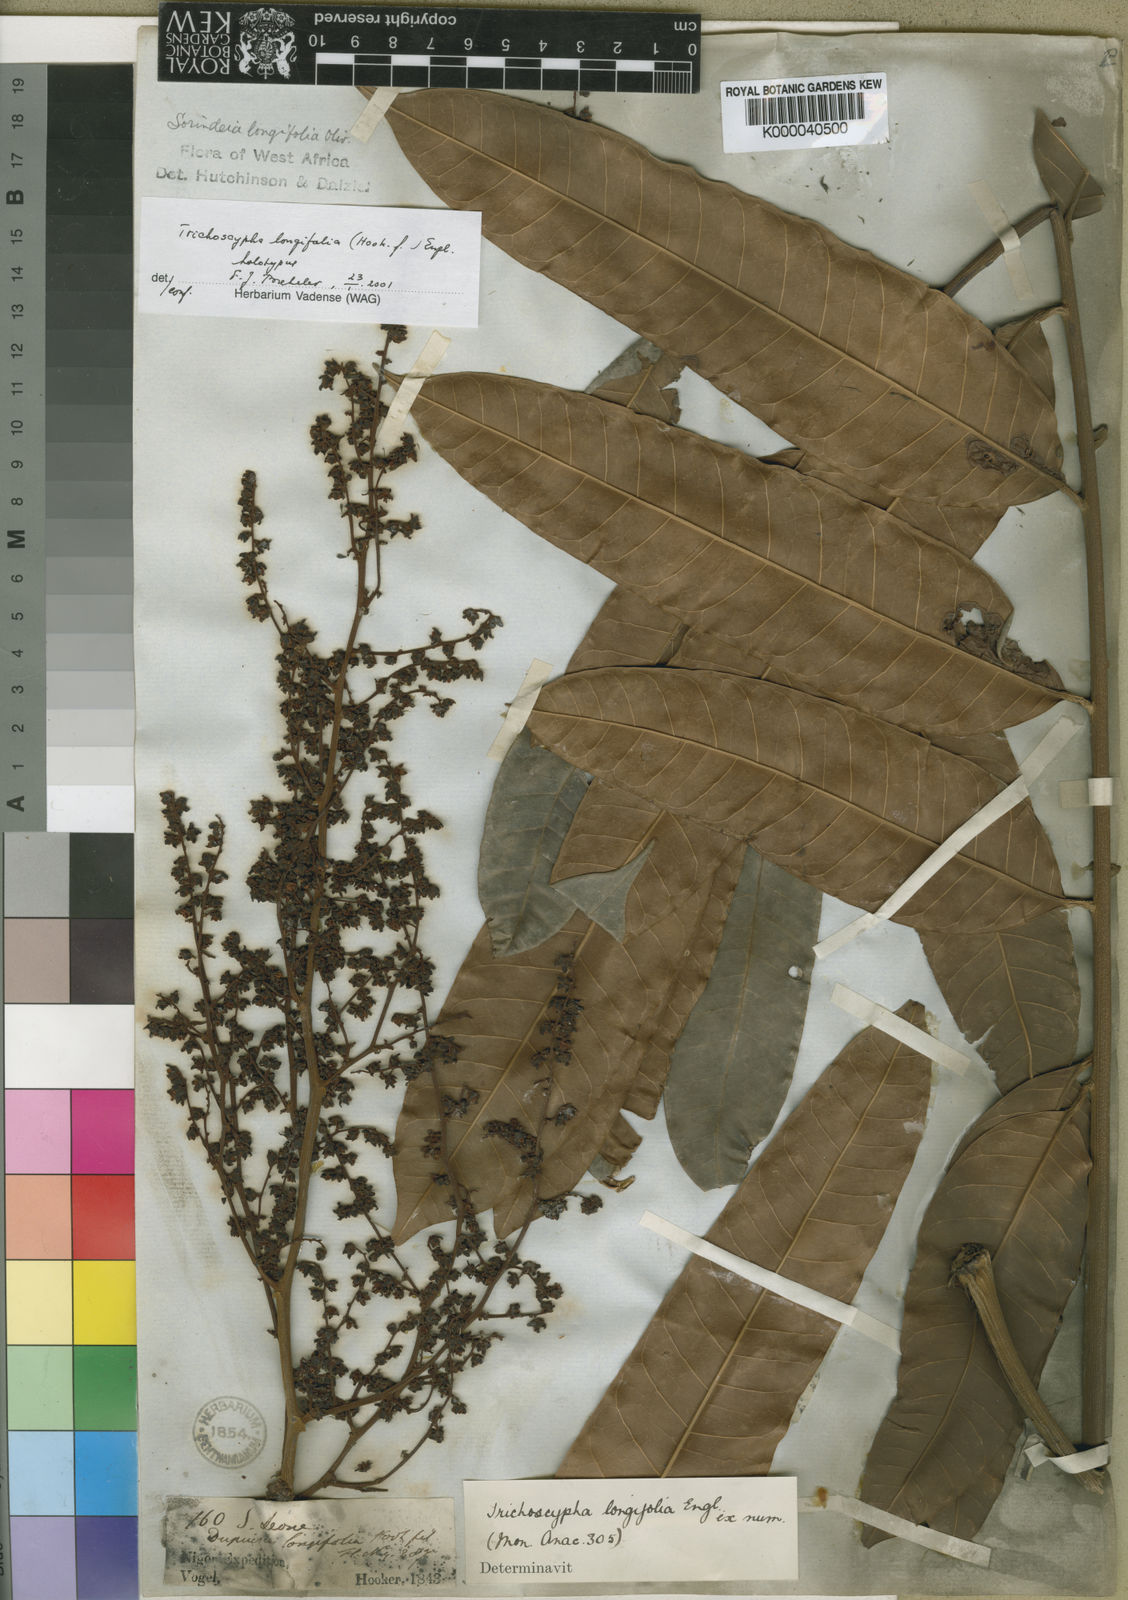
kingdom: Plantae
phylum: Tracheophyta
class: Magnoliopsida
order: Sapindales
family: Anacardiaceae
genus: Trichoscypha
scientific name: Trichoscypha longifolia
